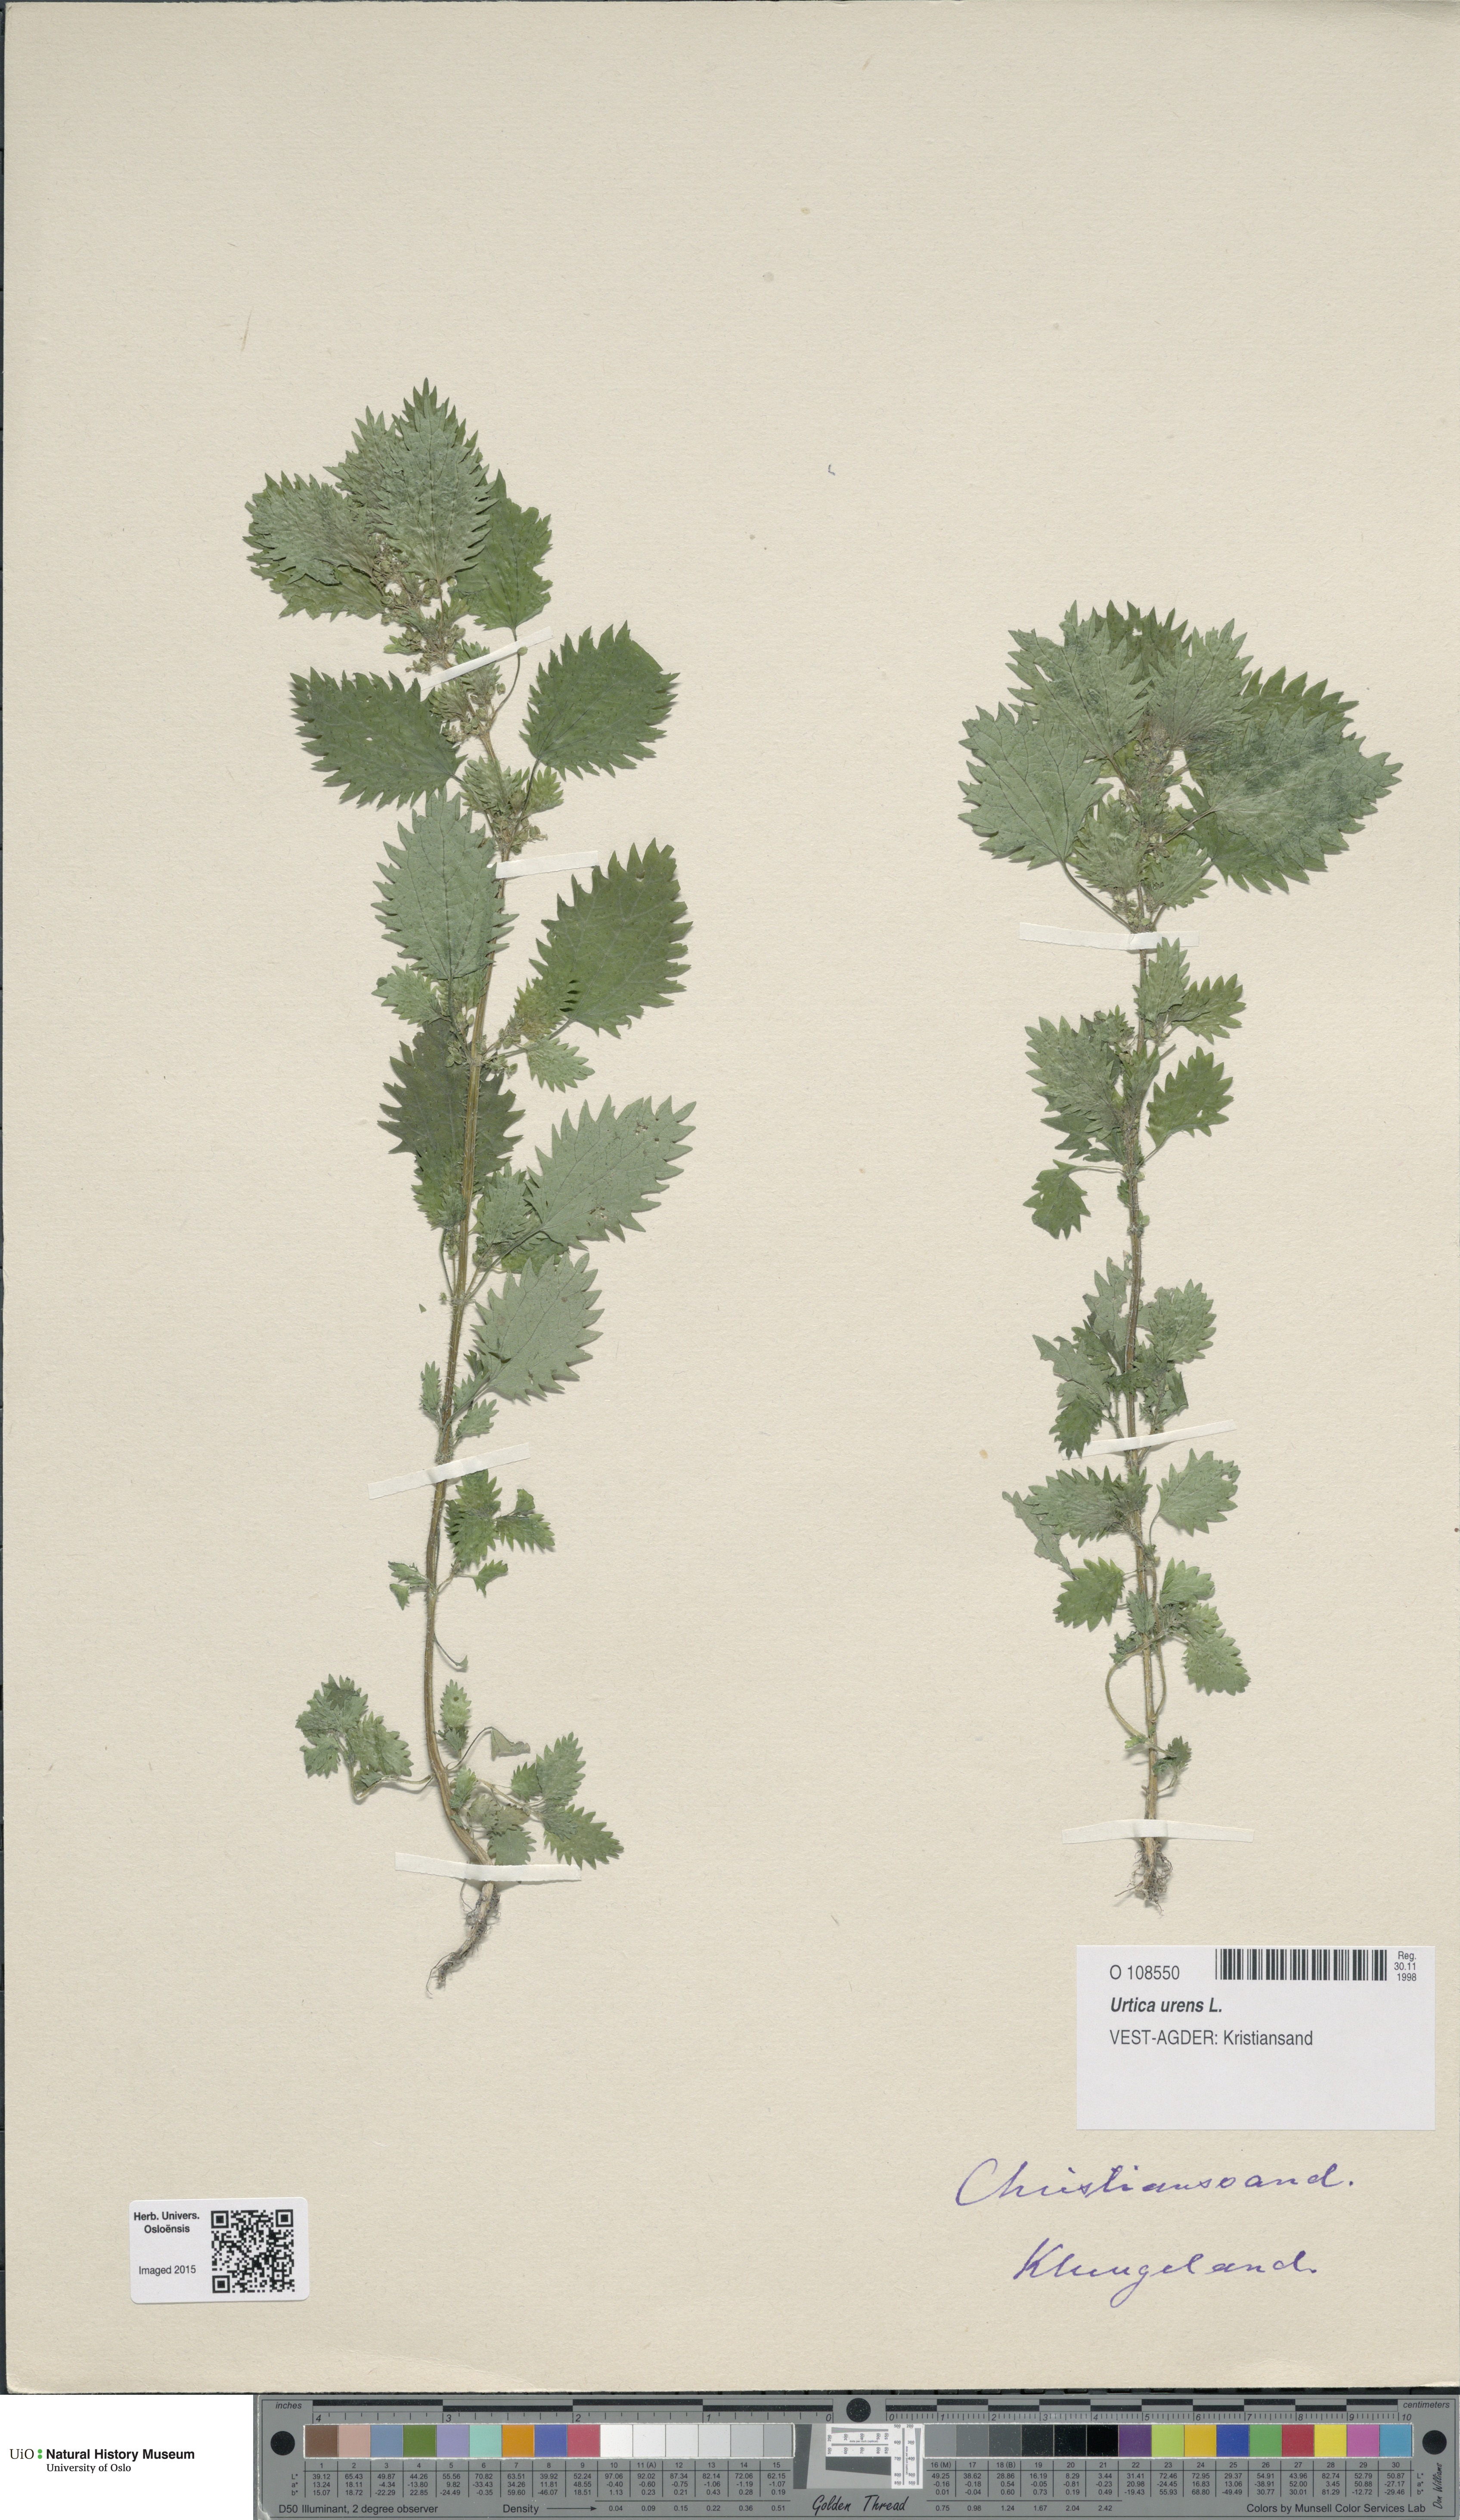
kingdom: Plantae
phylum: Tracheophyta
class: Magnoliopsida
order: Rosales
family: Urticaceae
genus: Urtica
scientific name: Urtica urens
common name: Dwarf nettle
